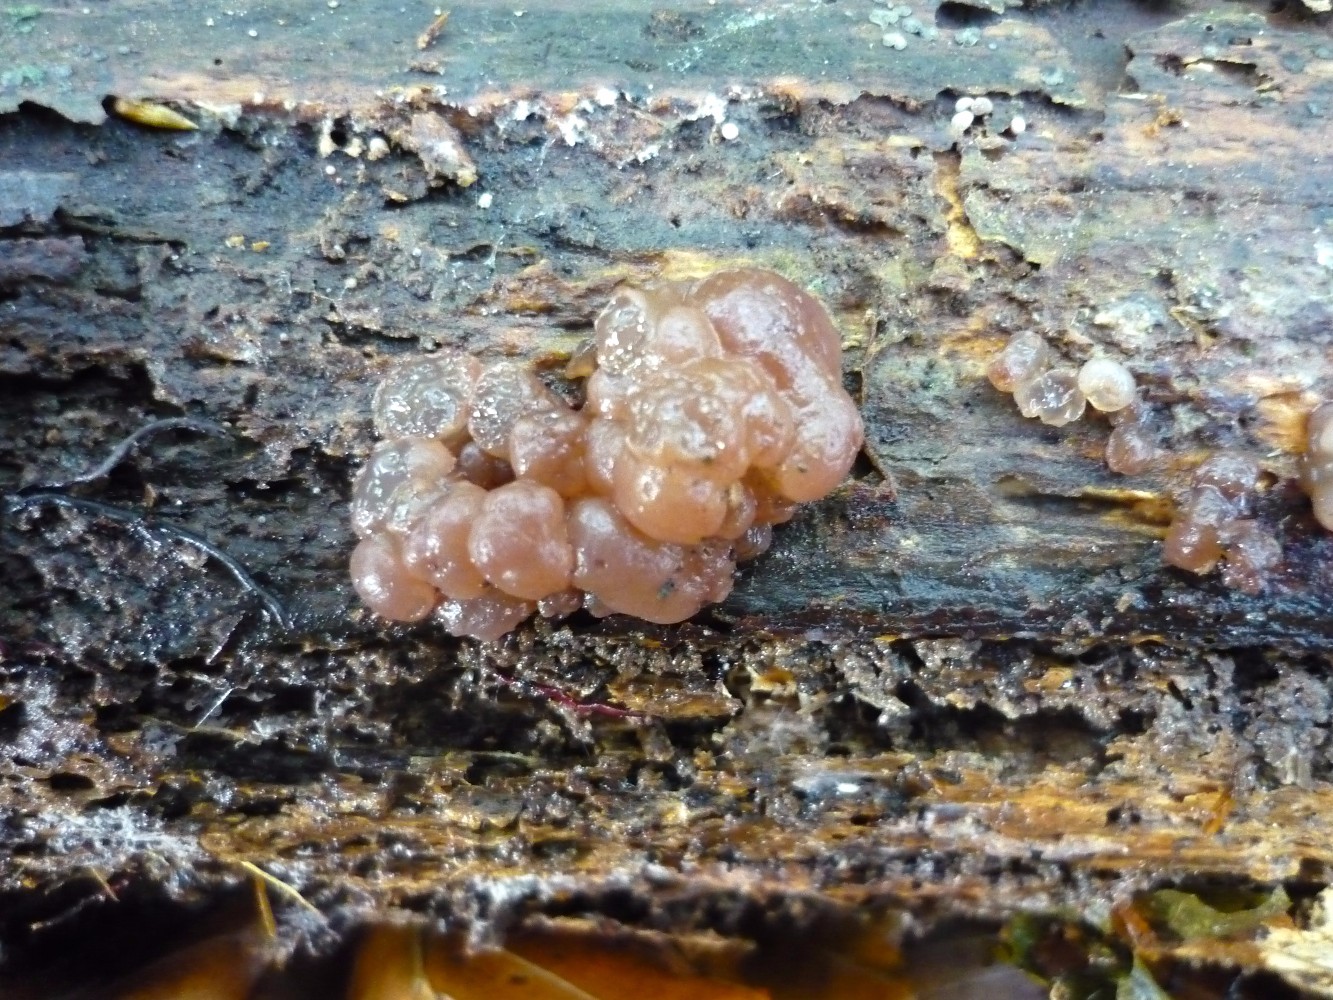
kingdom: Fungi
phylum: Ascomycota
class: Leotiomycetes
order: Helotiales
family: Gelatinodiscaceae
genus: Ascotremella
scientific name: Ascotremella faginea
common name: hjerne-bævreskive
